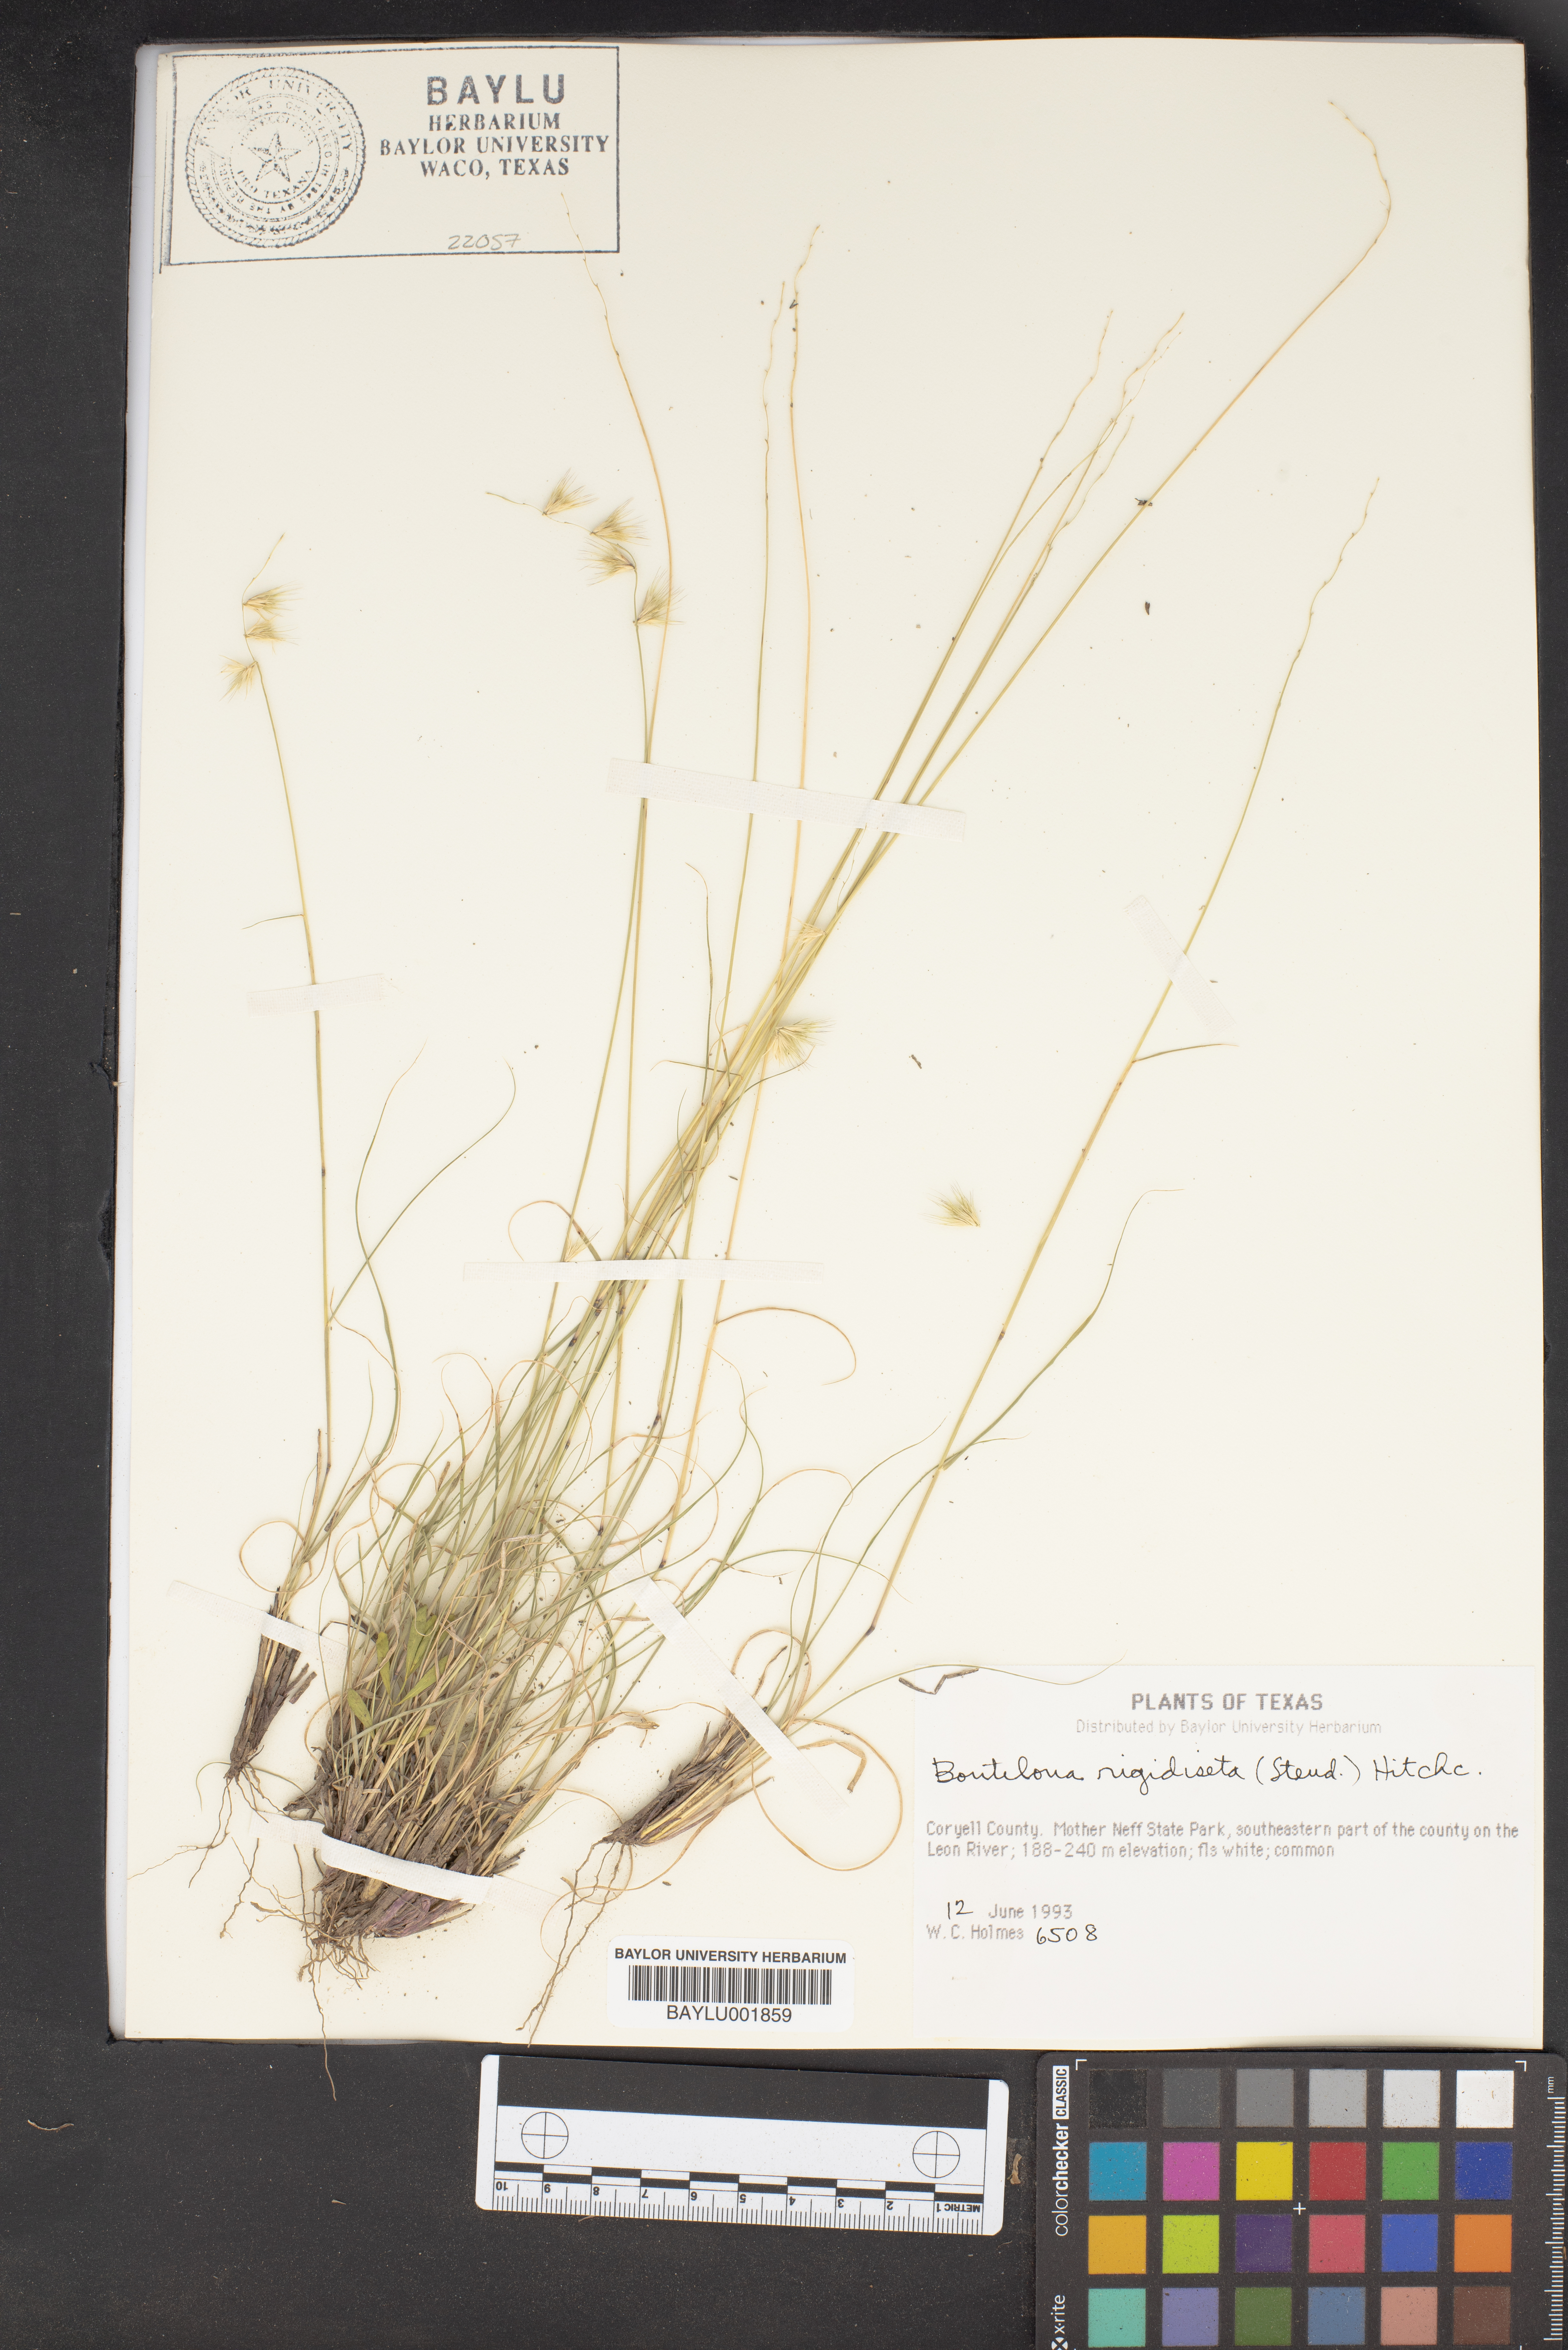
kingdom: Plantae
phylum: Tracheophyta
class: Liliopsida
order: Poales
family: Poaceae
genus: Bouteloua
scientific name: Bouteloua rigidiseta
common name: Texas grama
